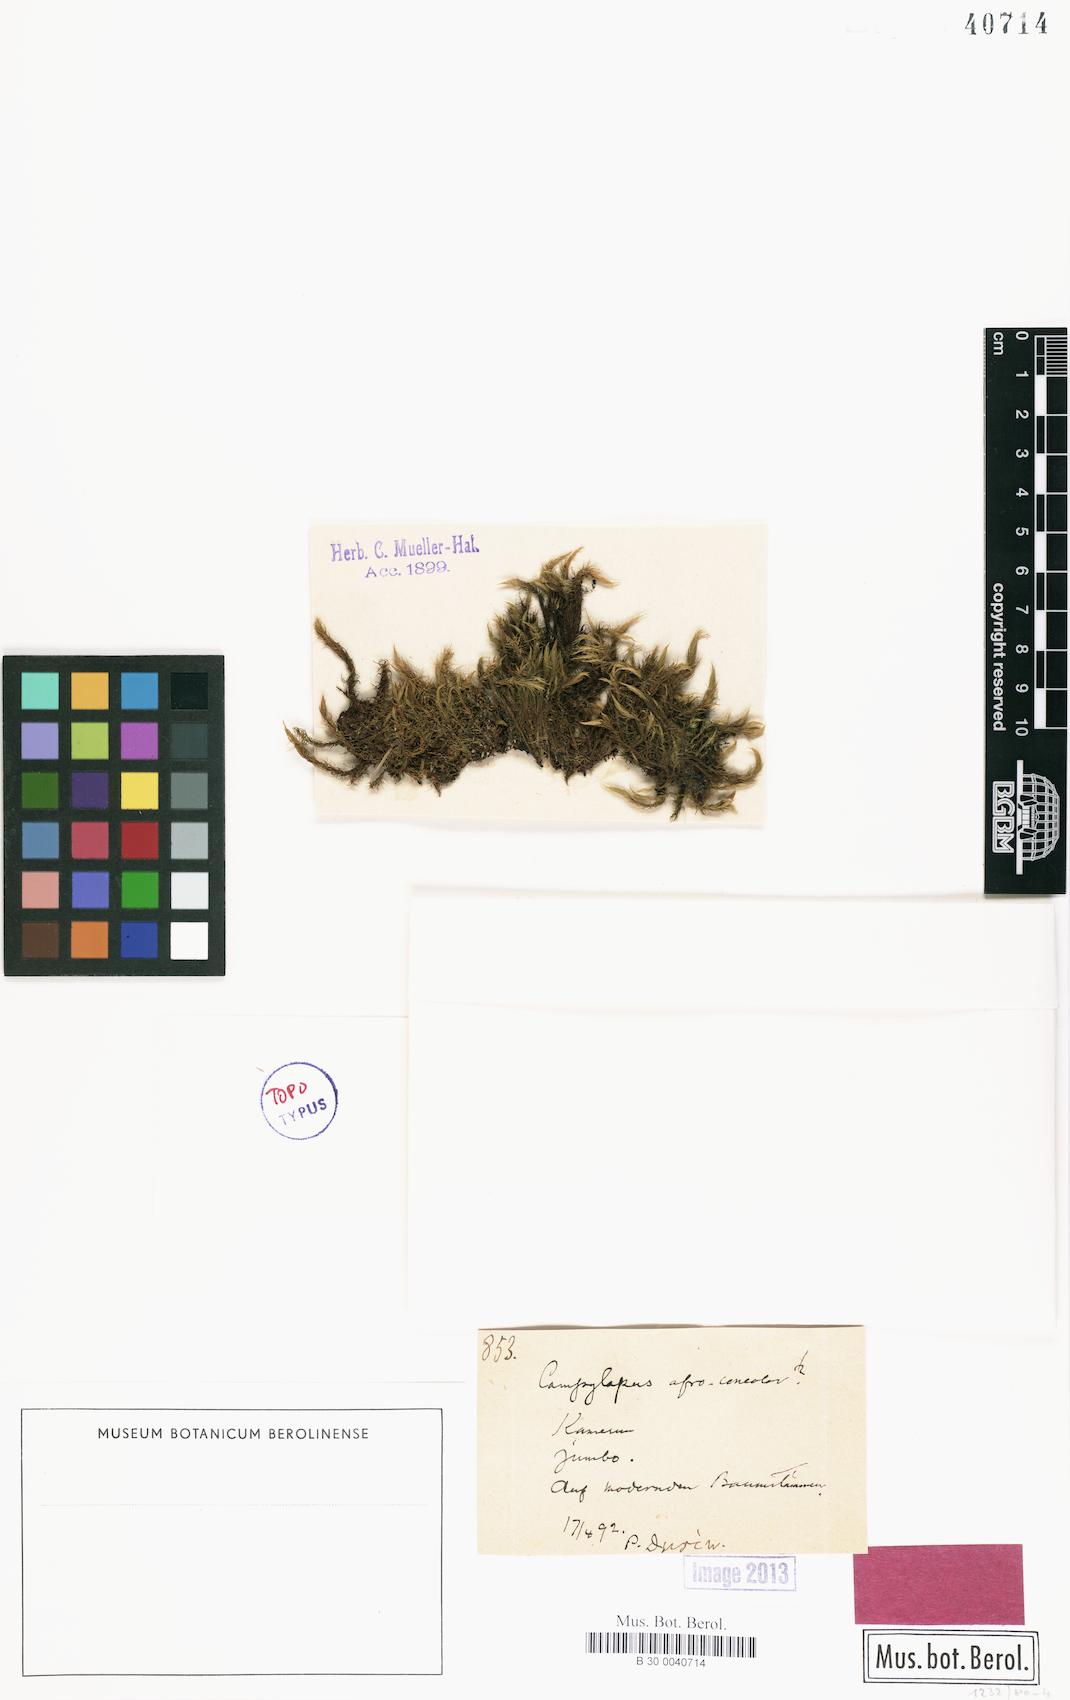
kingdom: Plantae
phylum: Bryophyta
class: Bryopsida
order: Dicranales
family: Leucobryaceae
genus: Campylopus
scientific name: Campylopus savannarum
